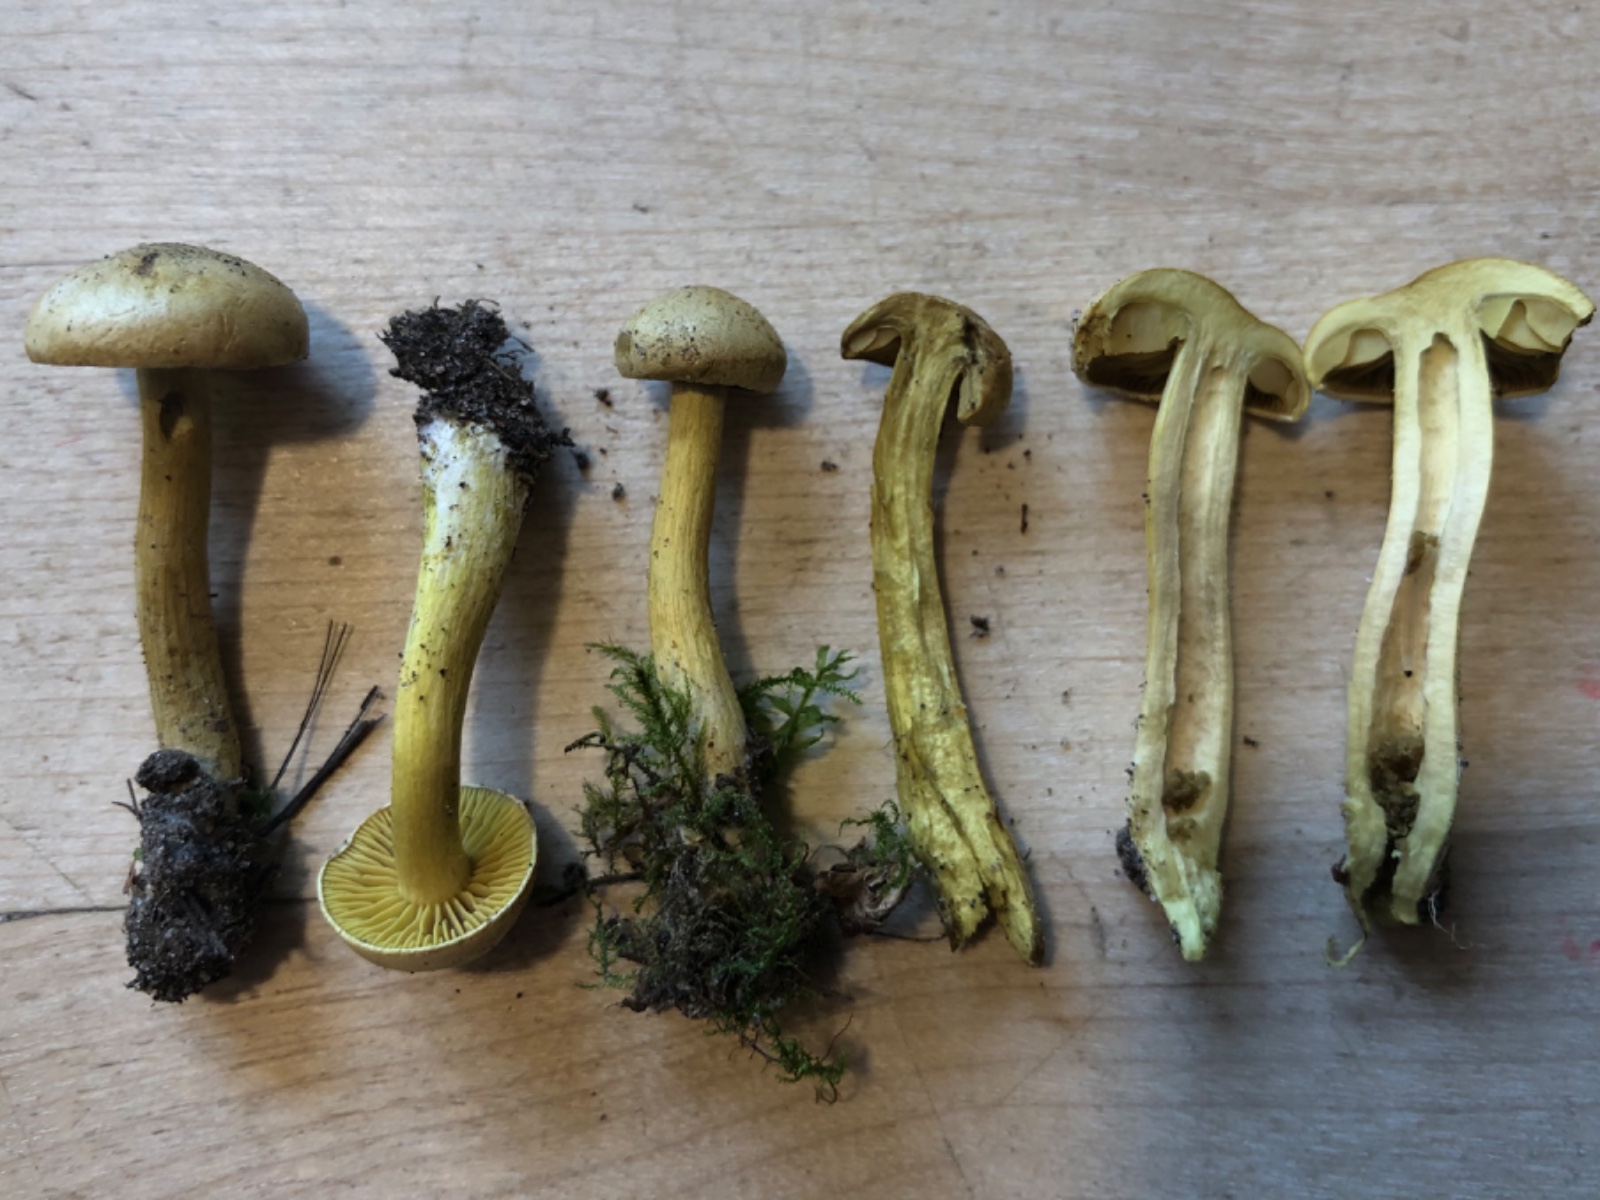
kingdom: Fungi
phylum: Basidiomycota
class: Agaricomycetes
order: Agaricales
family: Tricholomataceae
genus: Tricholoma
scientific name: Tricholoma sulphureum
